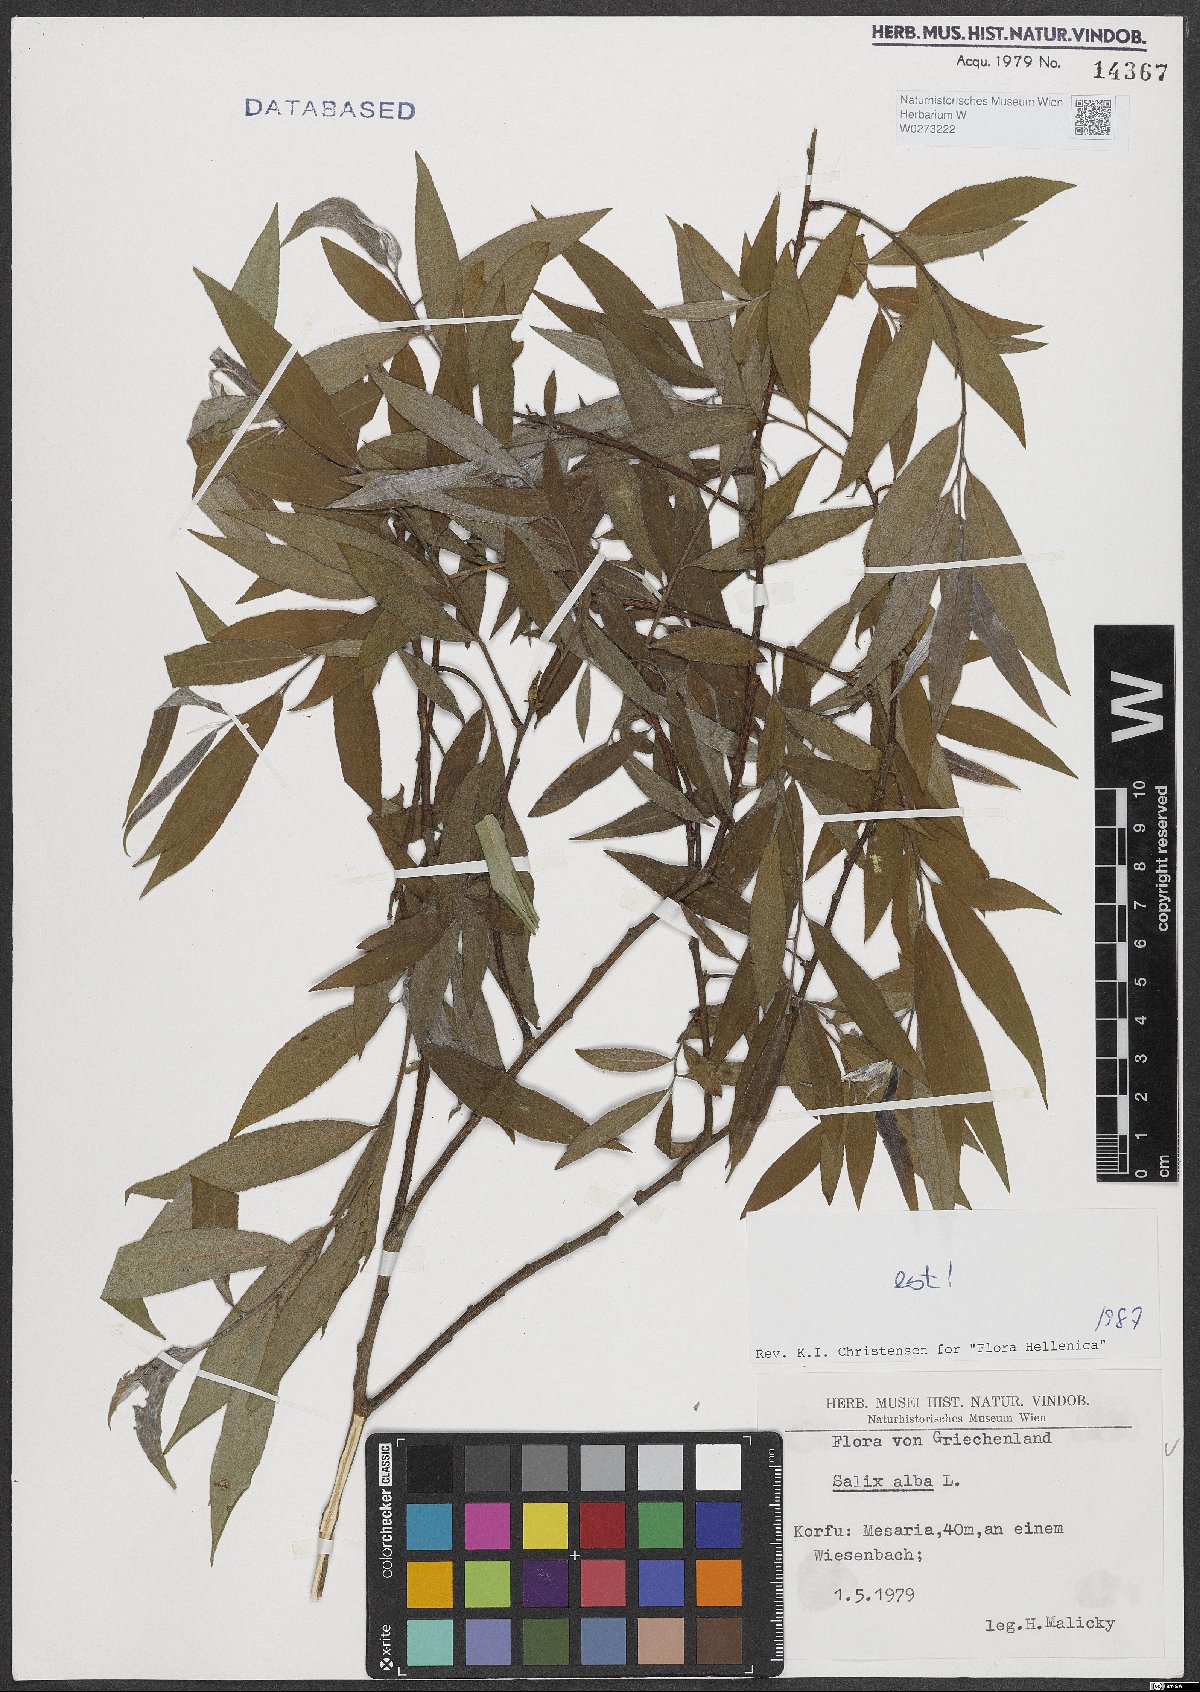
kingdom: Plantae
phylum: Tracheophyta
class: Magnoliopsida
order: Malpighiales
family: Salicaceae
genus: Salix
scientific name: Salix alba
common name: White willow
